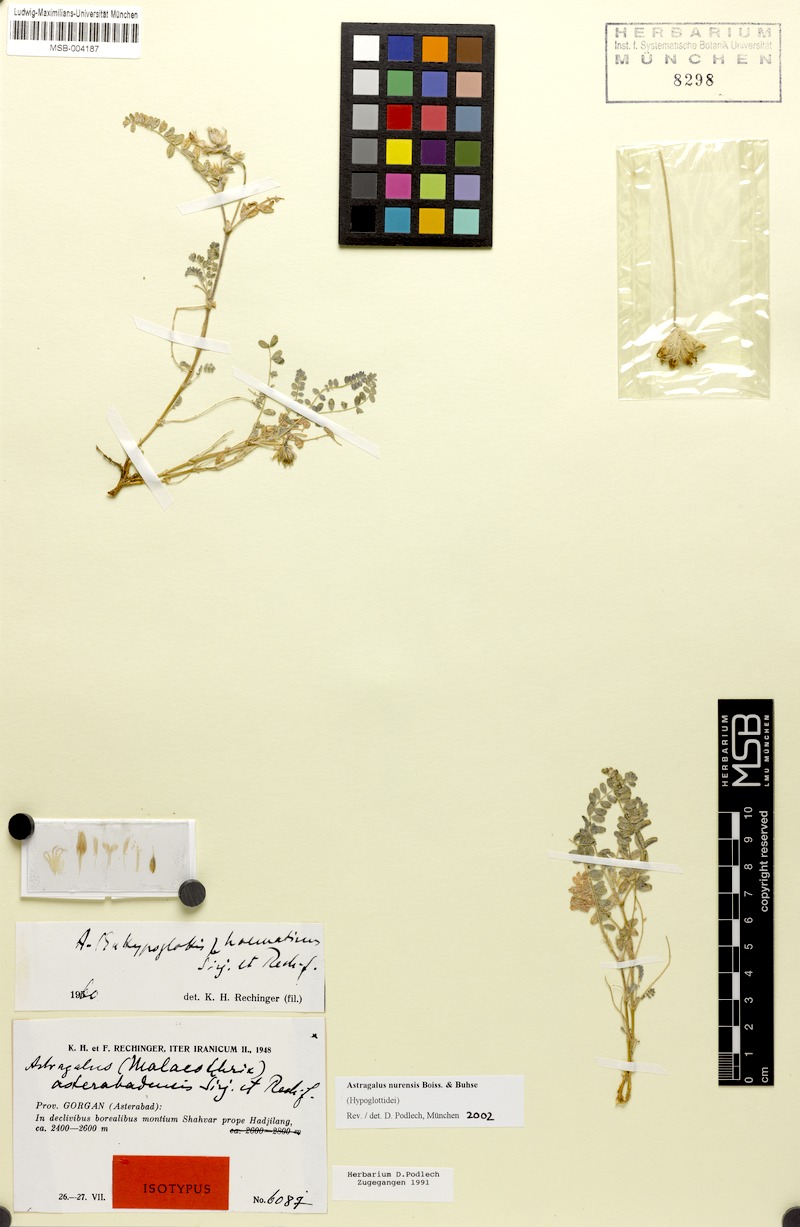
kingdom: Plantae
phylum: Tracheophyta
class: Magnoliopsida
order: Fabales
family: Fabaceae
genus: Astragalus
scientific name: Astragalus nurensis
